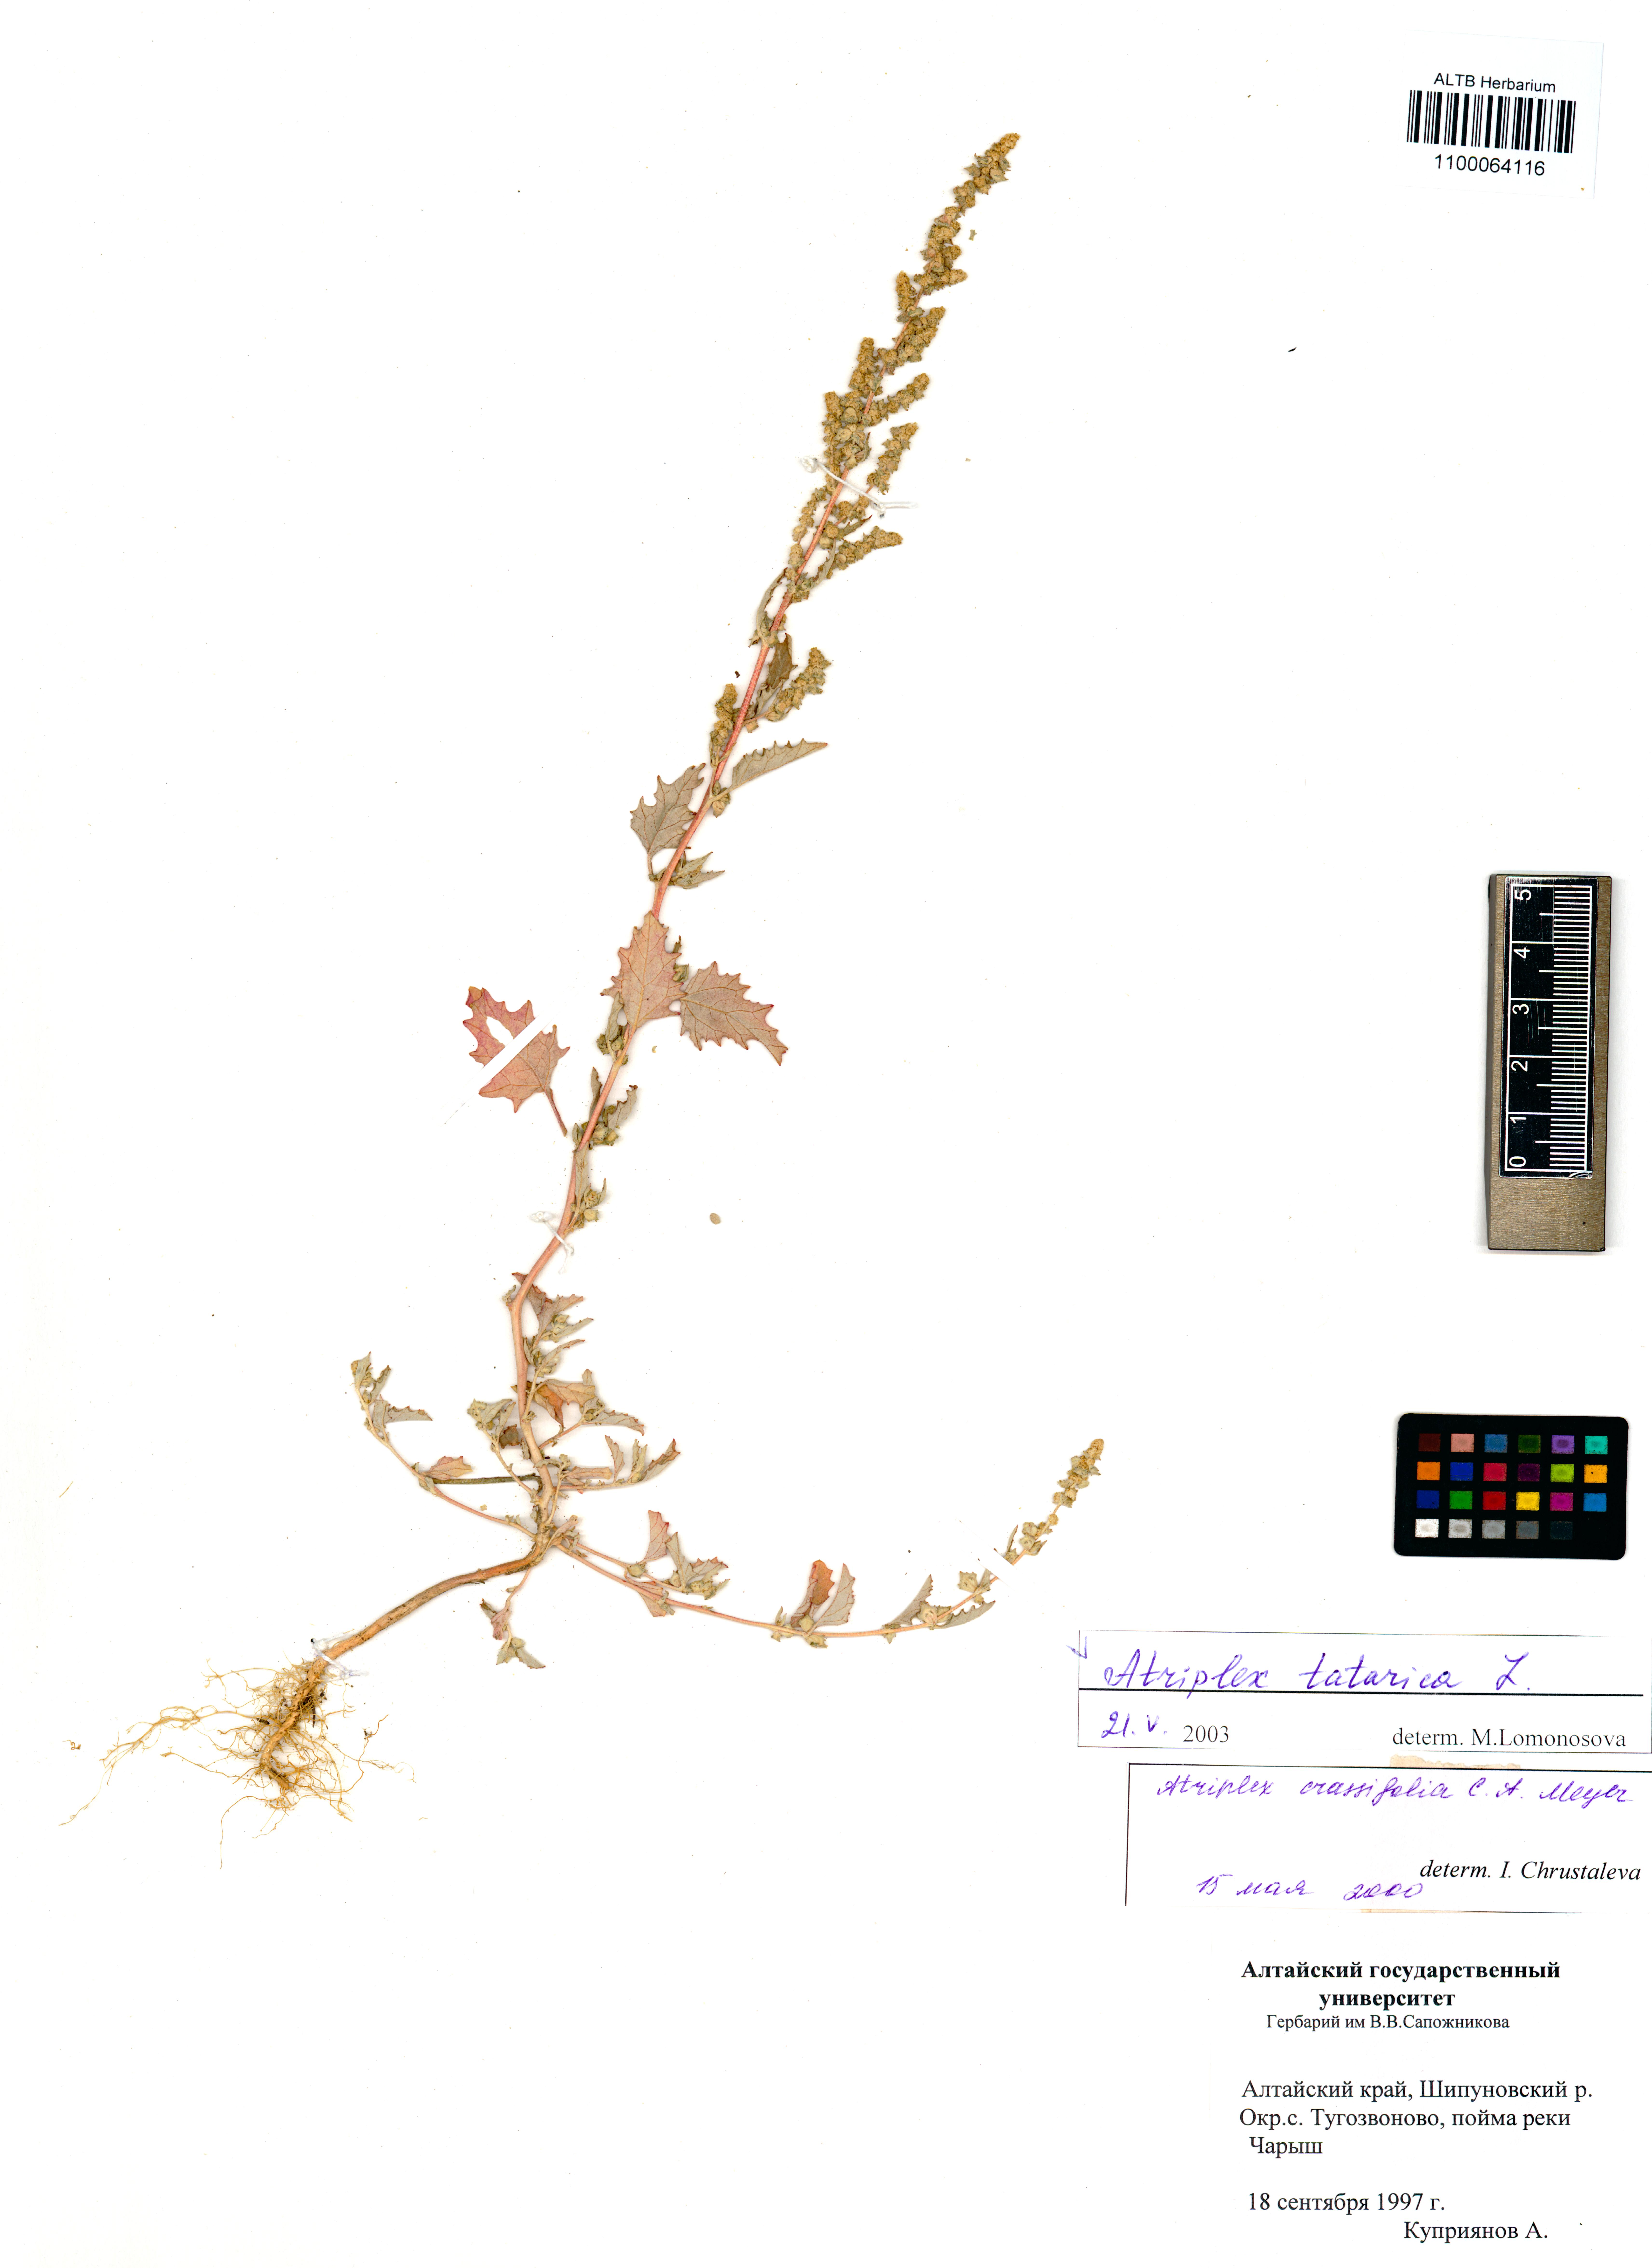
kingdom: Plantae
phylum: Tracheophyta
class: Magnoliopsida
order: Caryophyllales
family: Amaranthaceae
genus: Atriplex
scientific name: Atriplex tatarica
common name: Tatarian orache
